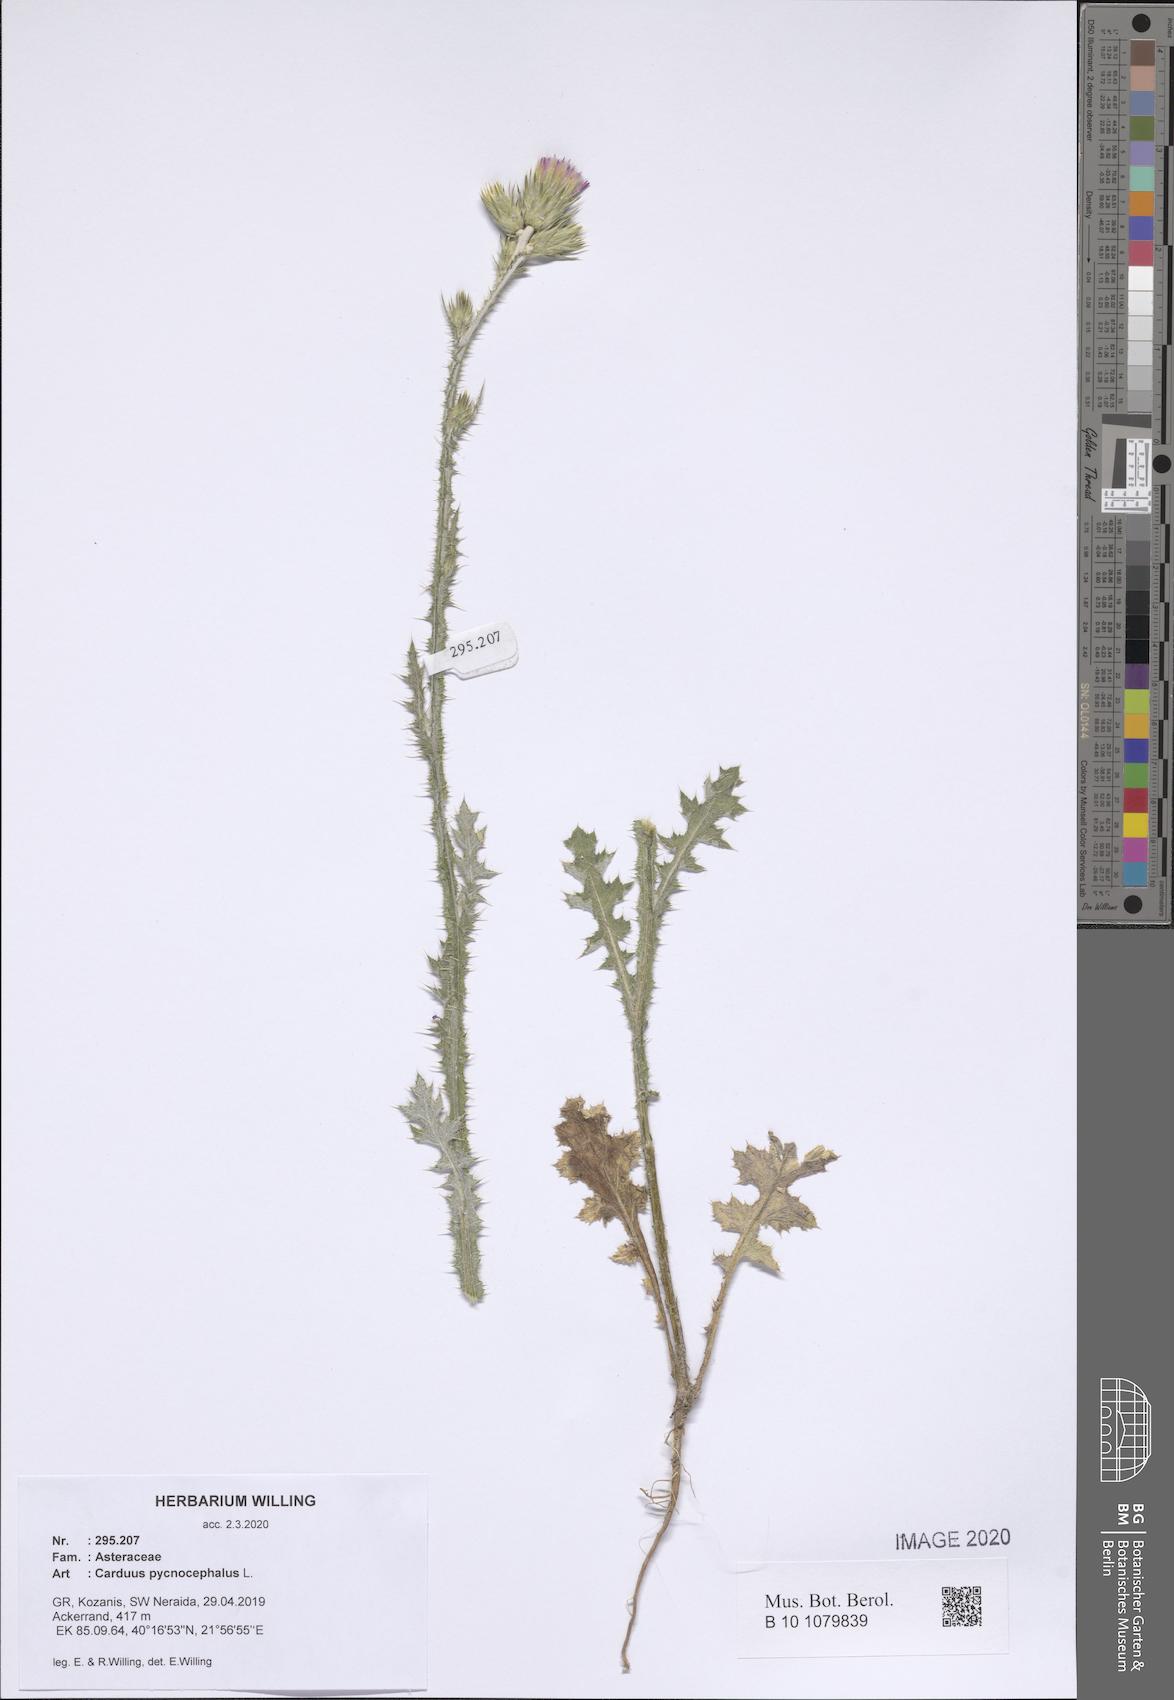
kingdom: Plantae
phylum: Tracheophyta
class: Magnoliopsida
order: Asterales
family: Asteraceae
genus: Carduus
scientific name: Carduus pycnocephalus
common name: Plymouth thistle
